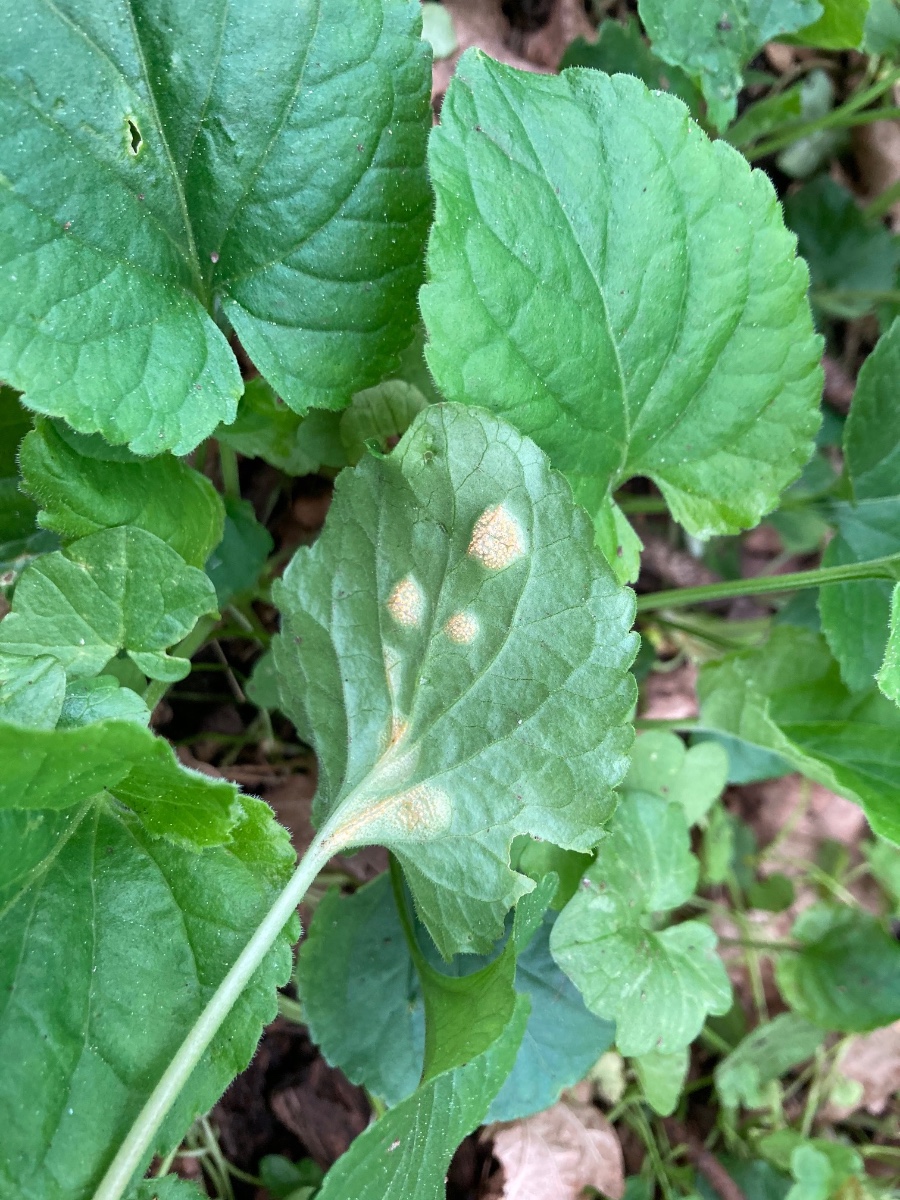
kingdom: Fungi
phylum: Basidiomycota
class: Pucciniomycetes
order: Pucciniales
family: Pucciniaceae
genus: Puccinia
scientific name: Puccinia violae
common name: viol-tvecellerust
